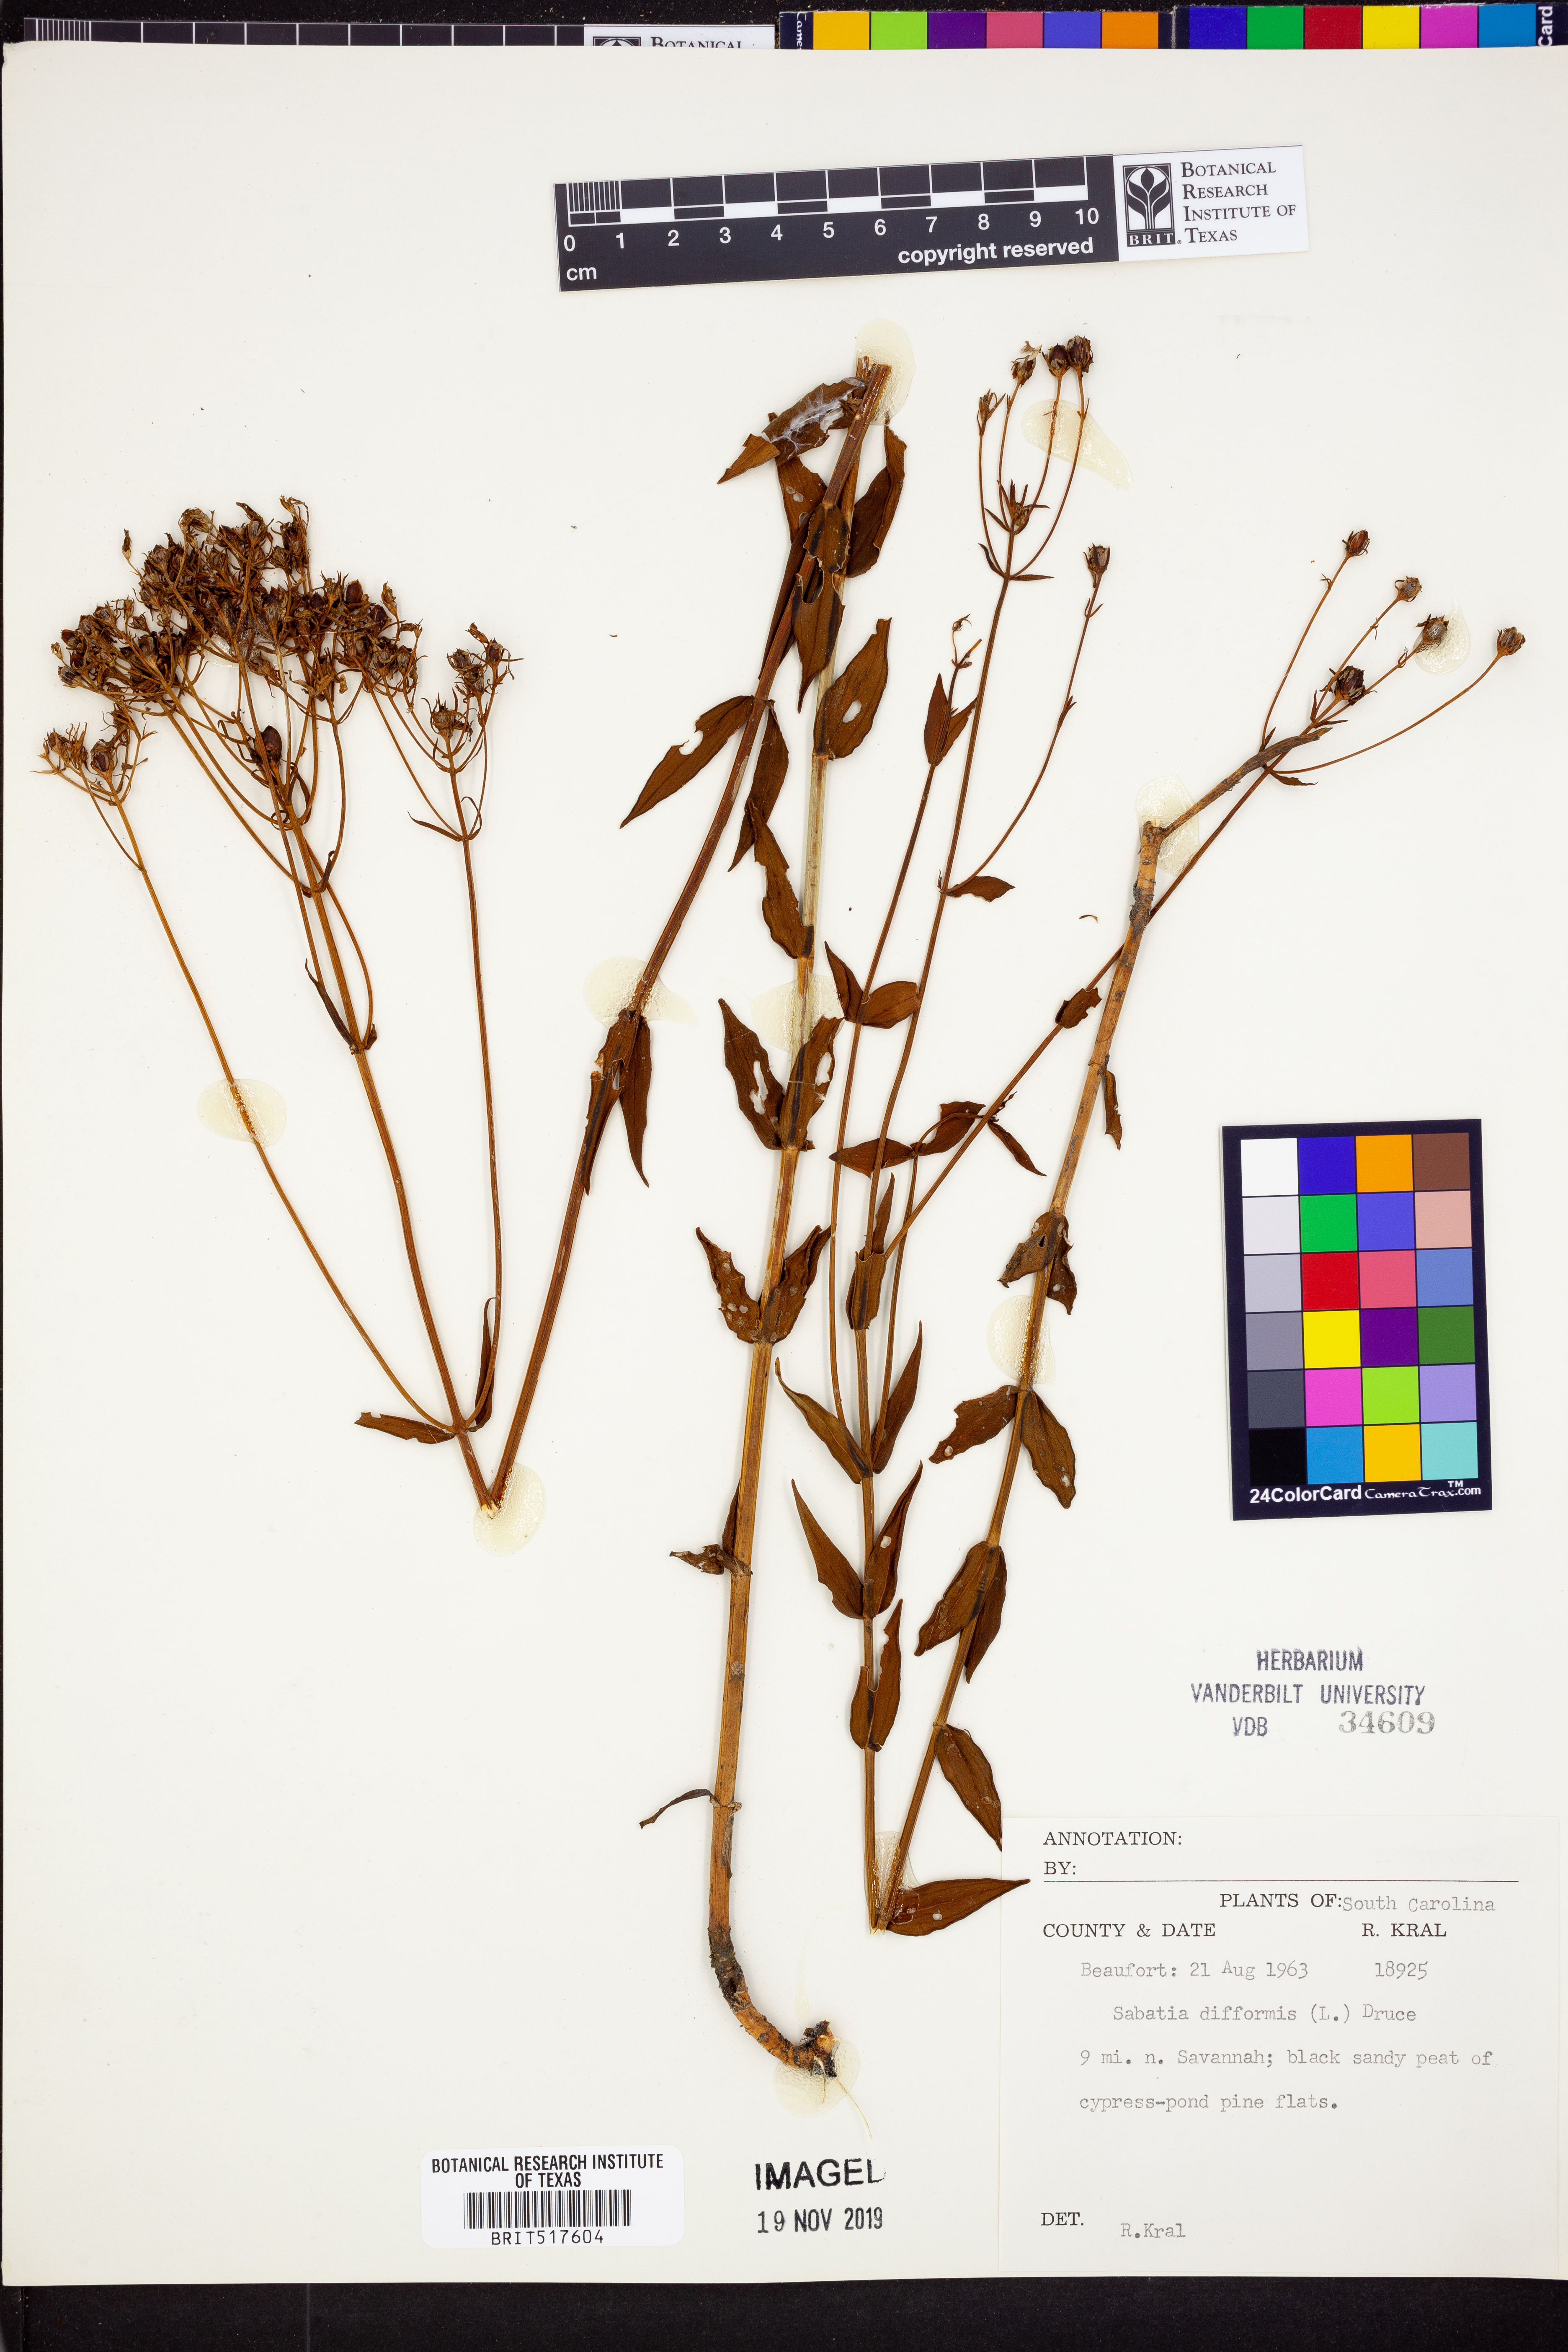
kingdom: Plantae
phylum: Tracheophyta
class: Magnoliopsida
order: Gentianales
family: Gentianaceae
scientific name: Gentianaceae
